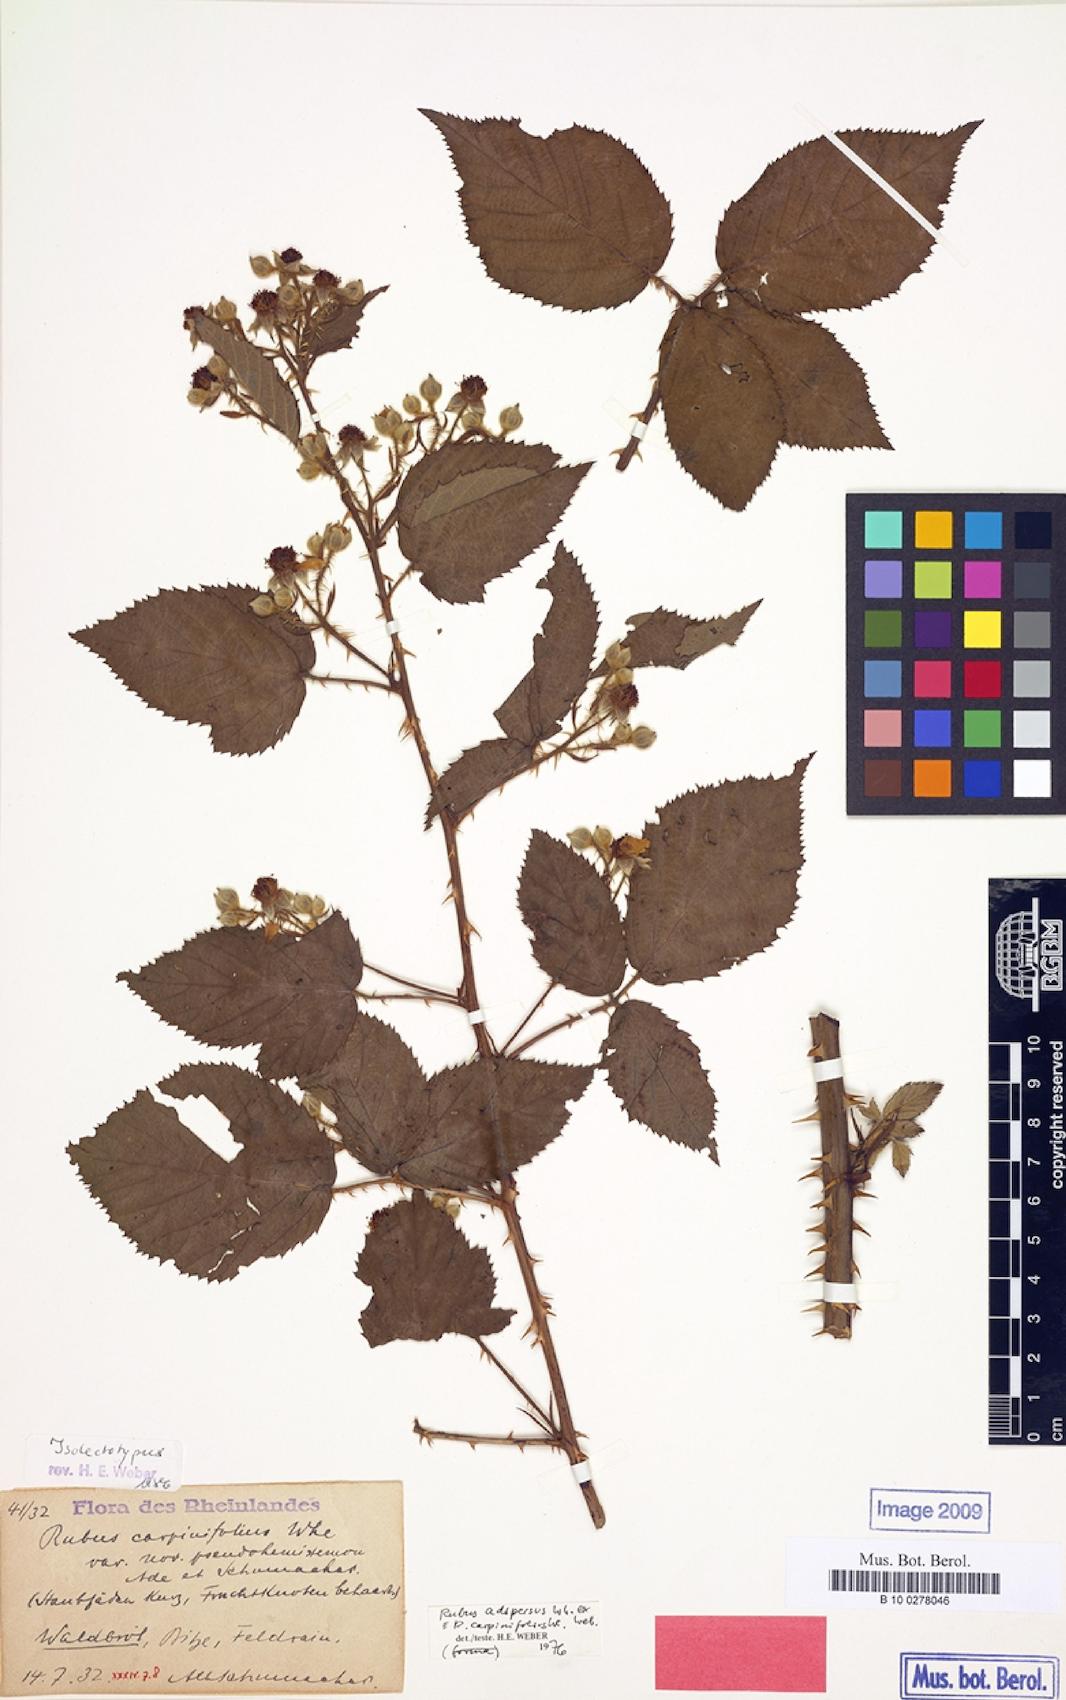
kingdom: Plantae
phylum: Tracheophyta
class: Magnoliopsida
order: Rosales
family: Rosaceae
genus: Rubus
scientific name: Rubus adspersus
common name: Hornbeam-leaved bramble
